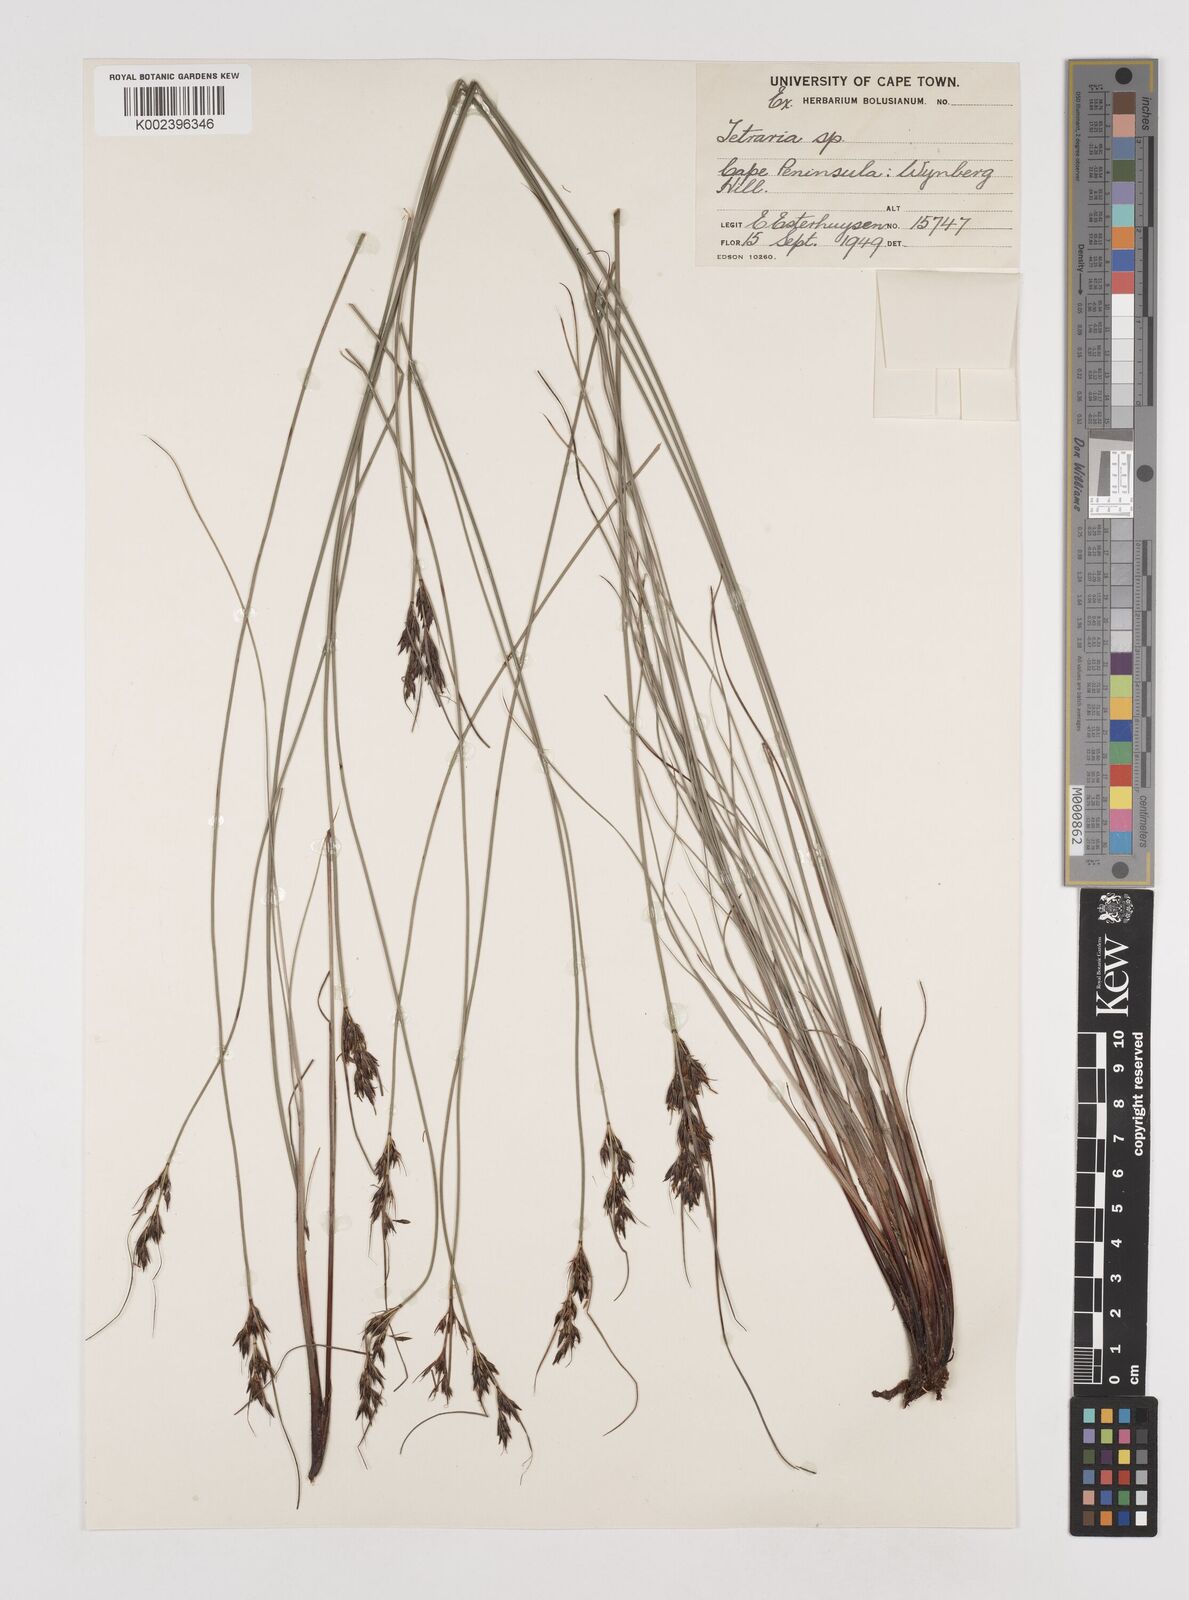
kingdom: Plantae
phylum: Tracheophyta
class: Liliopsida
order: Poales
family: Cyperaceae
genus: Schoenus
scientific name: Schoenus cuspidatus
